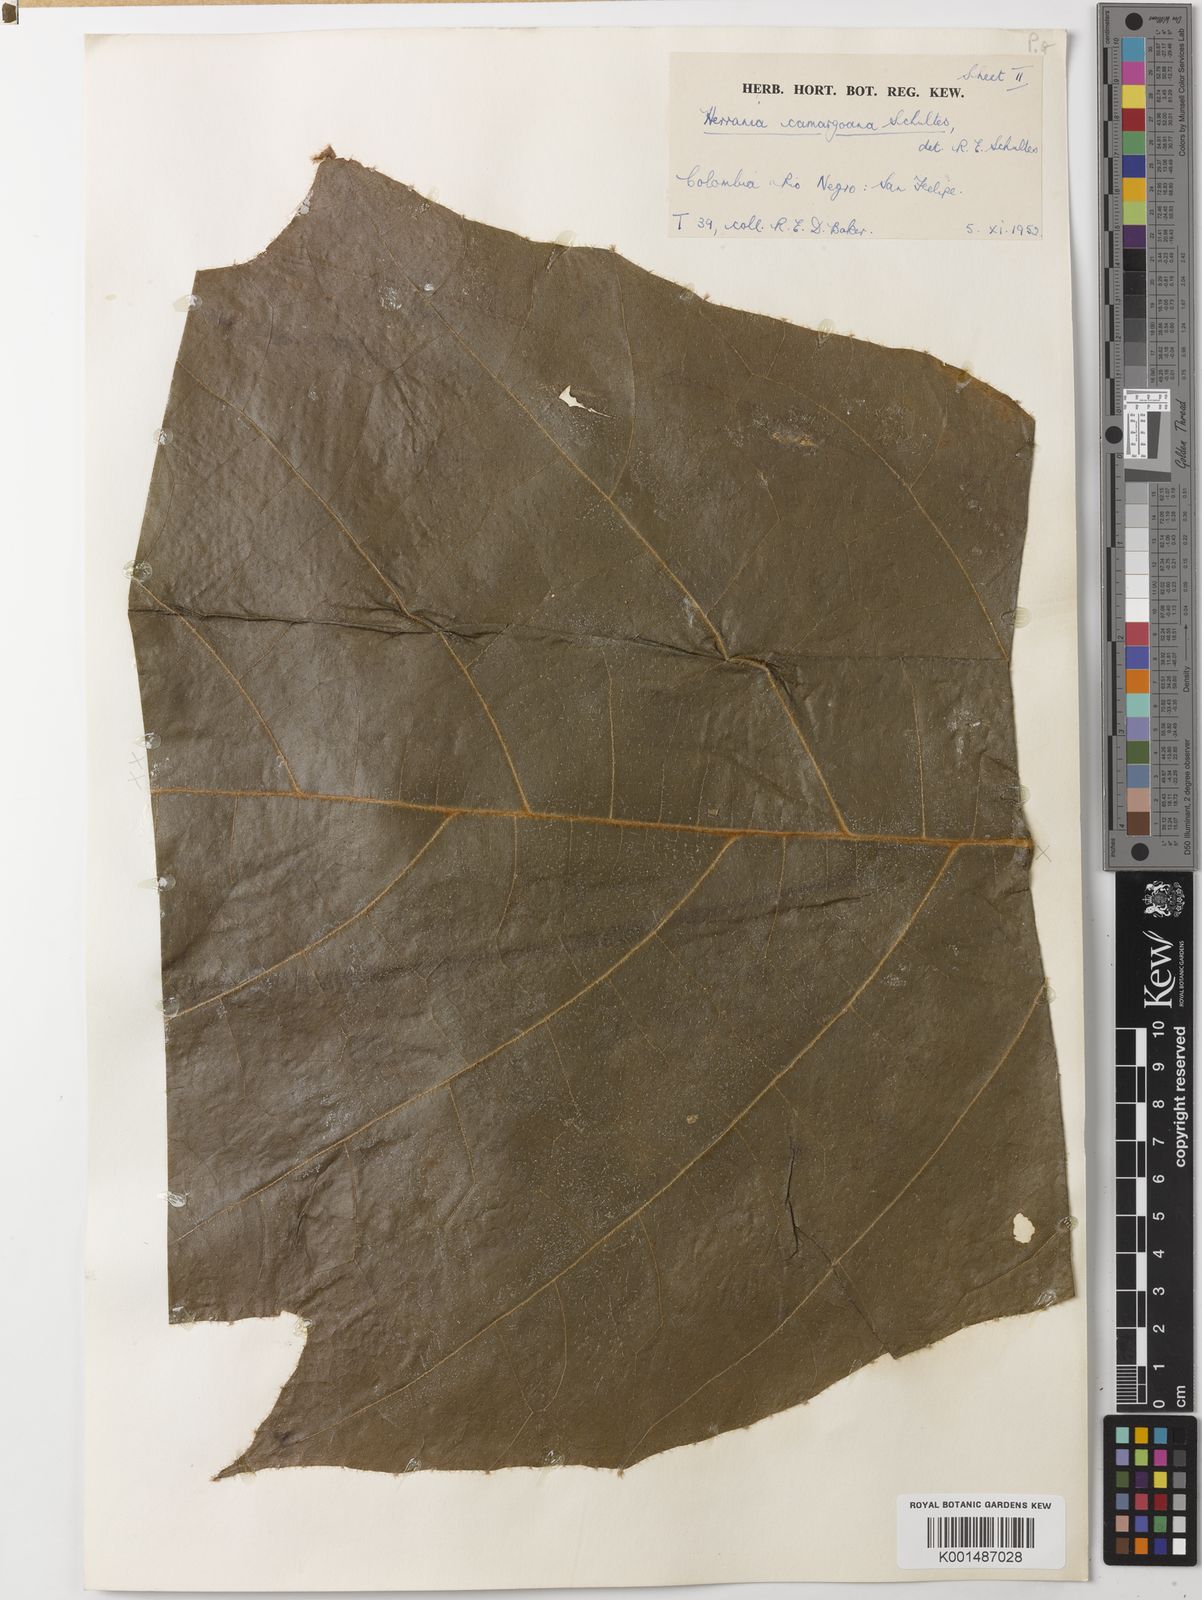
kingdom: Plantae
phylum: Tracheophyta
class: Magnoliopsida
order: Malvales
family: Malvaceae
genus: Herrania
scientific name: Herrania camargoana
